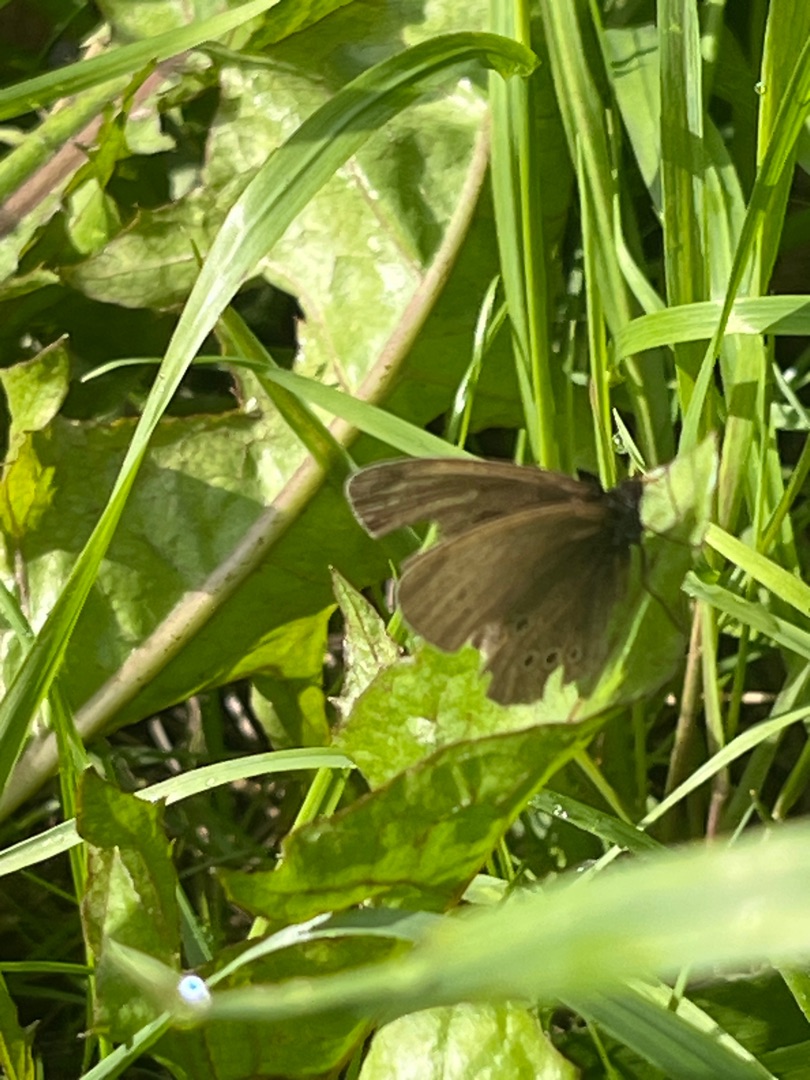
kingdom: Animalia
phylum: Arthropoda
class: Insecta
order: Lepidoptera
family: Nymphalidae
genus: Aphantopus
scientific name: Aphantopus hyperantus
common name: Engrandøje
